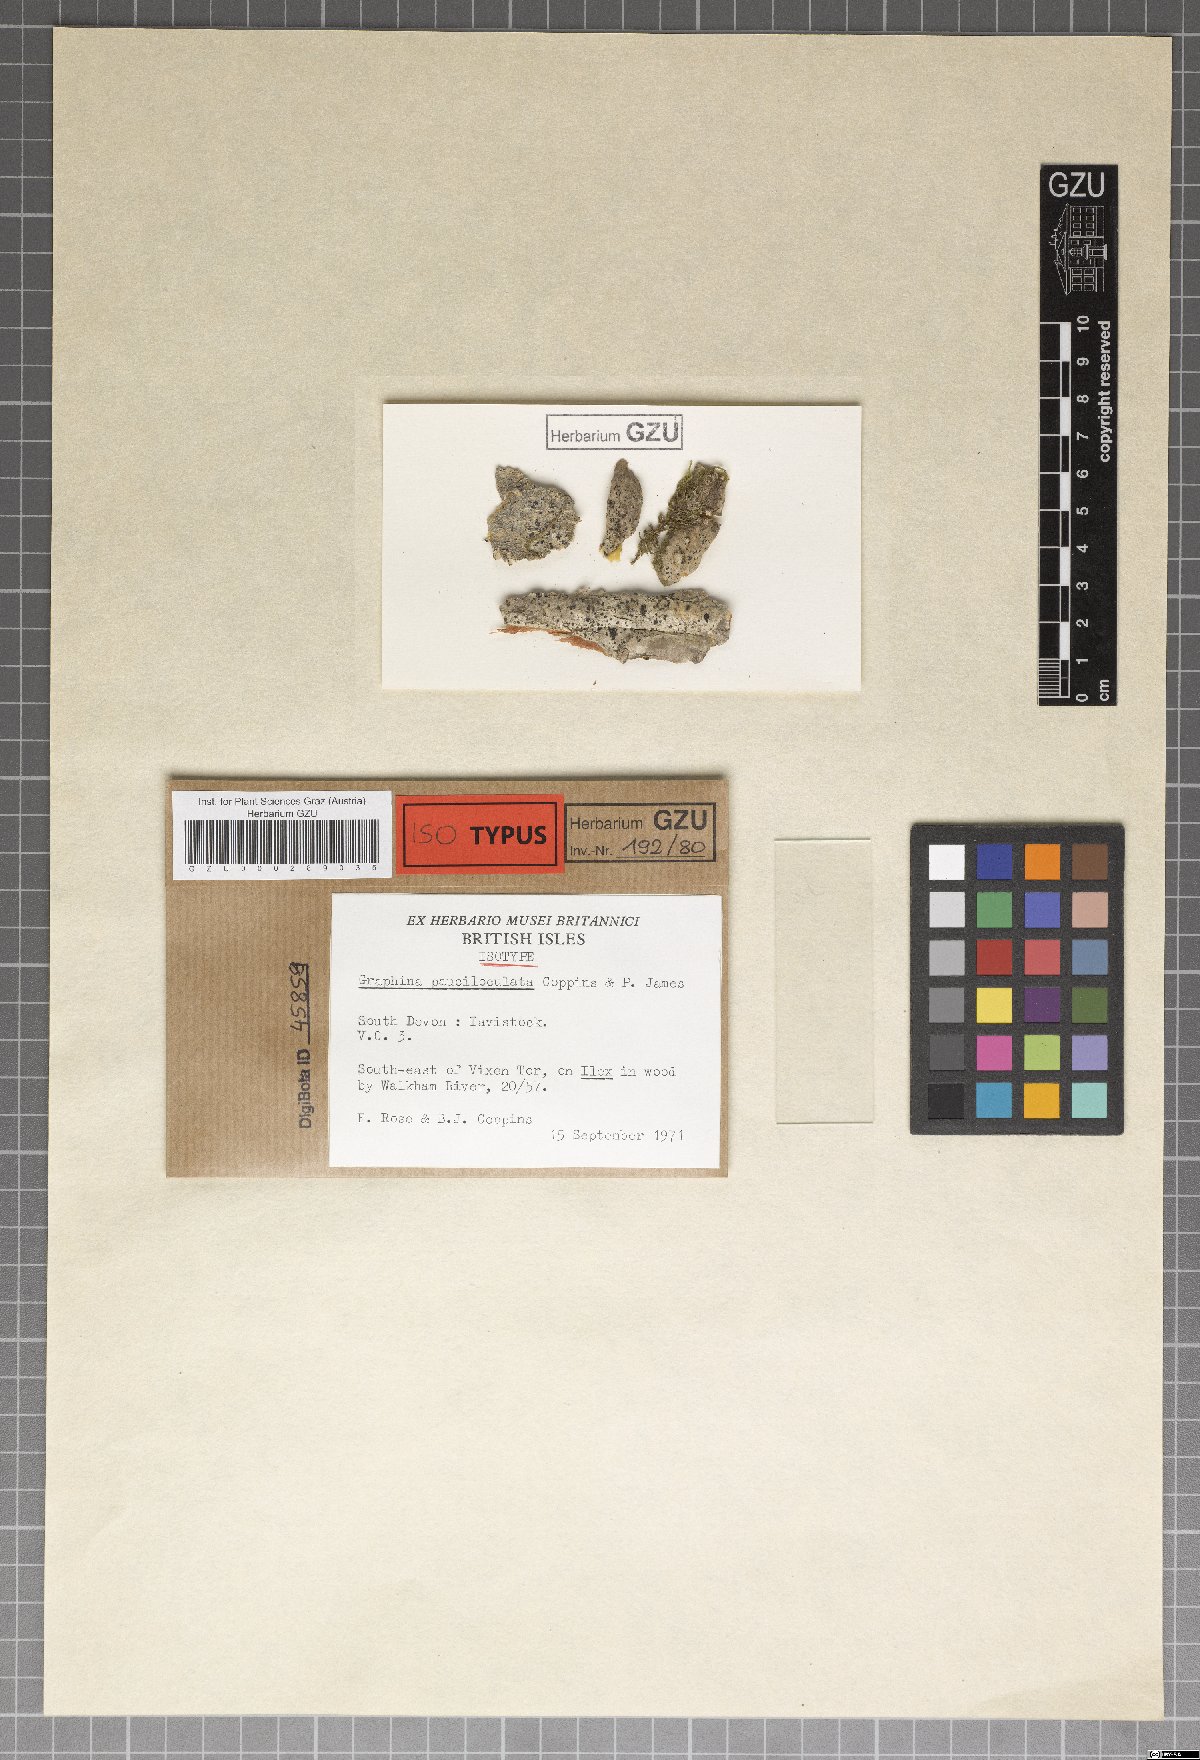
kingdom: Fungi
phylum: Ascomycota
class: Lecanoromycetes
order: Ostropales
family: Graphidaceae
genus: Graphina
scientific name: Graphina pauciloculata
